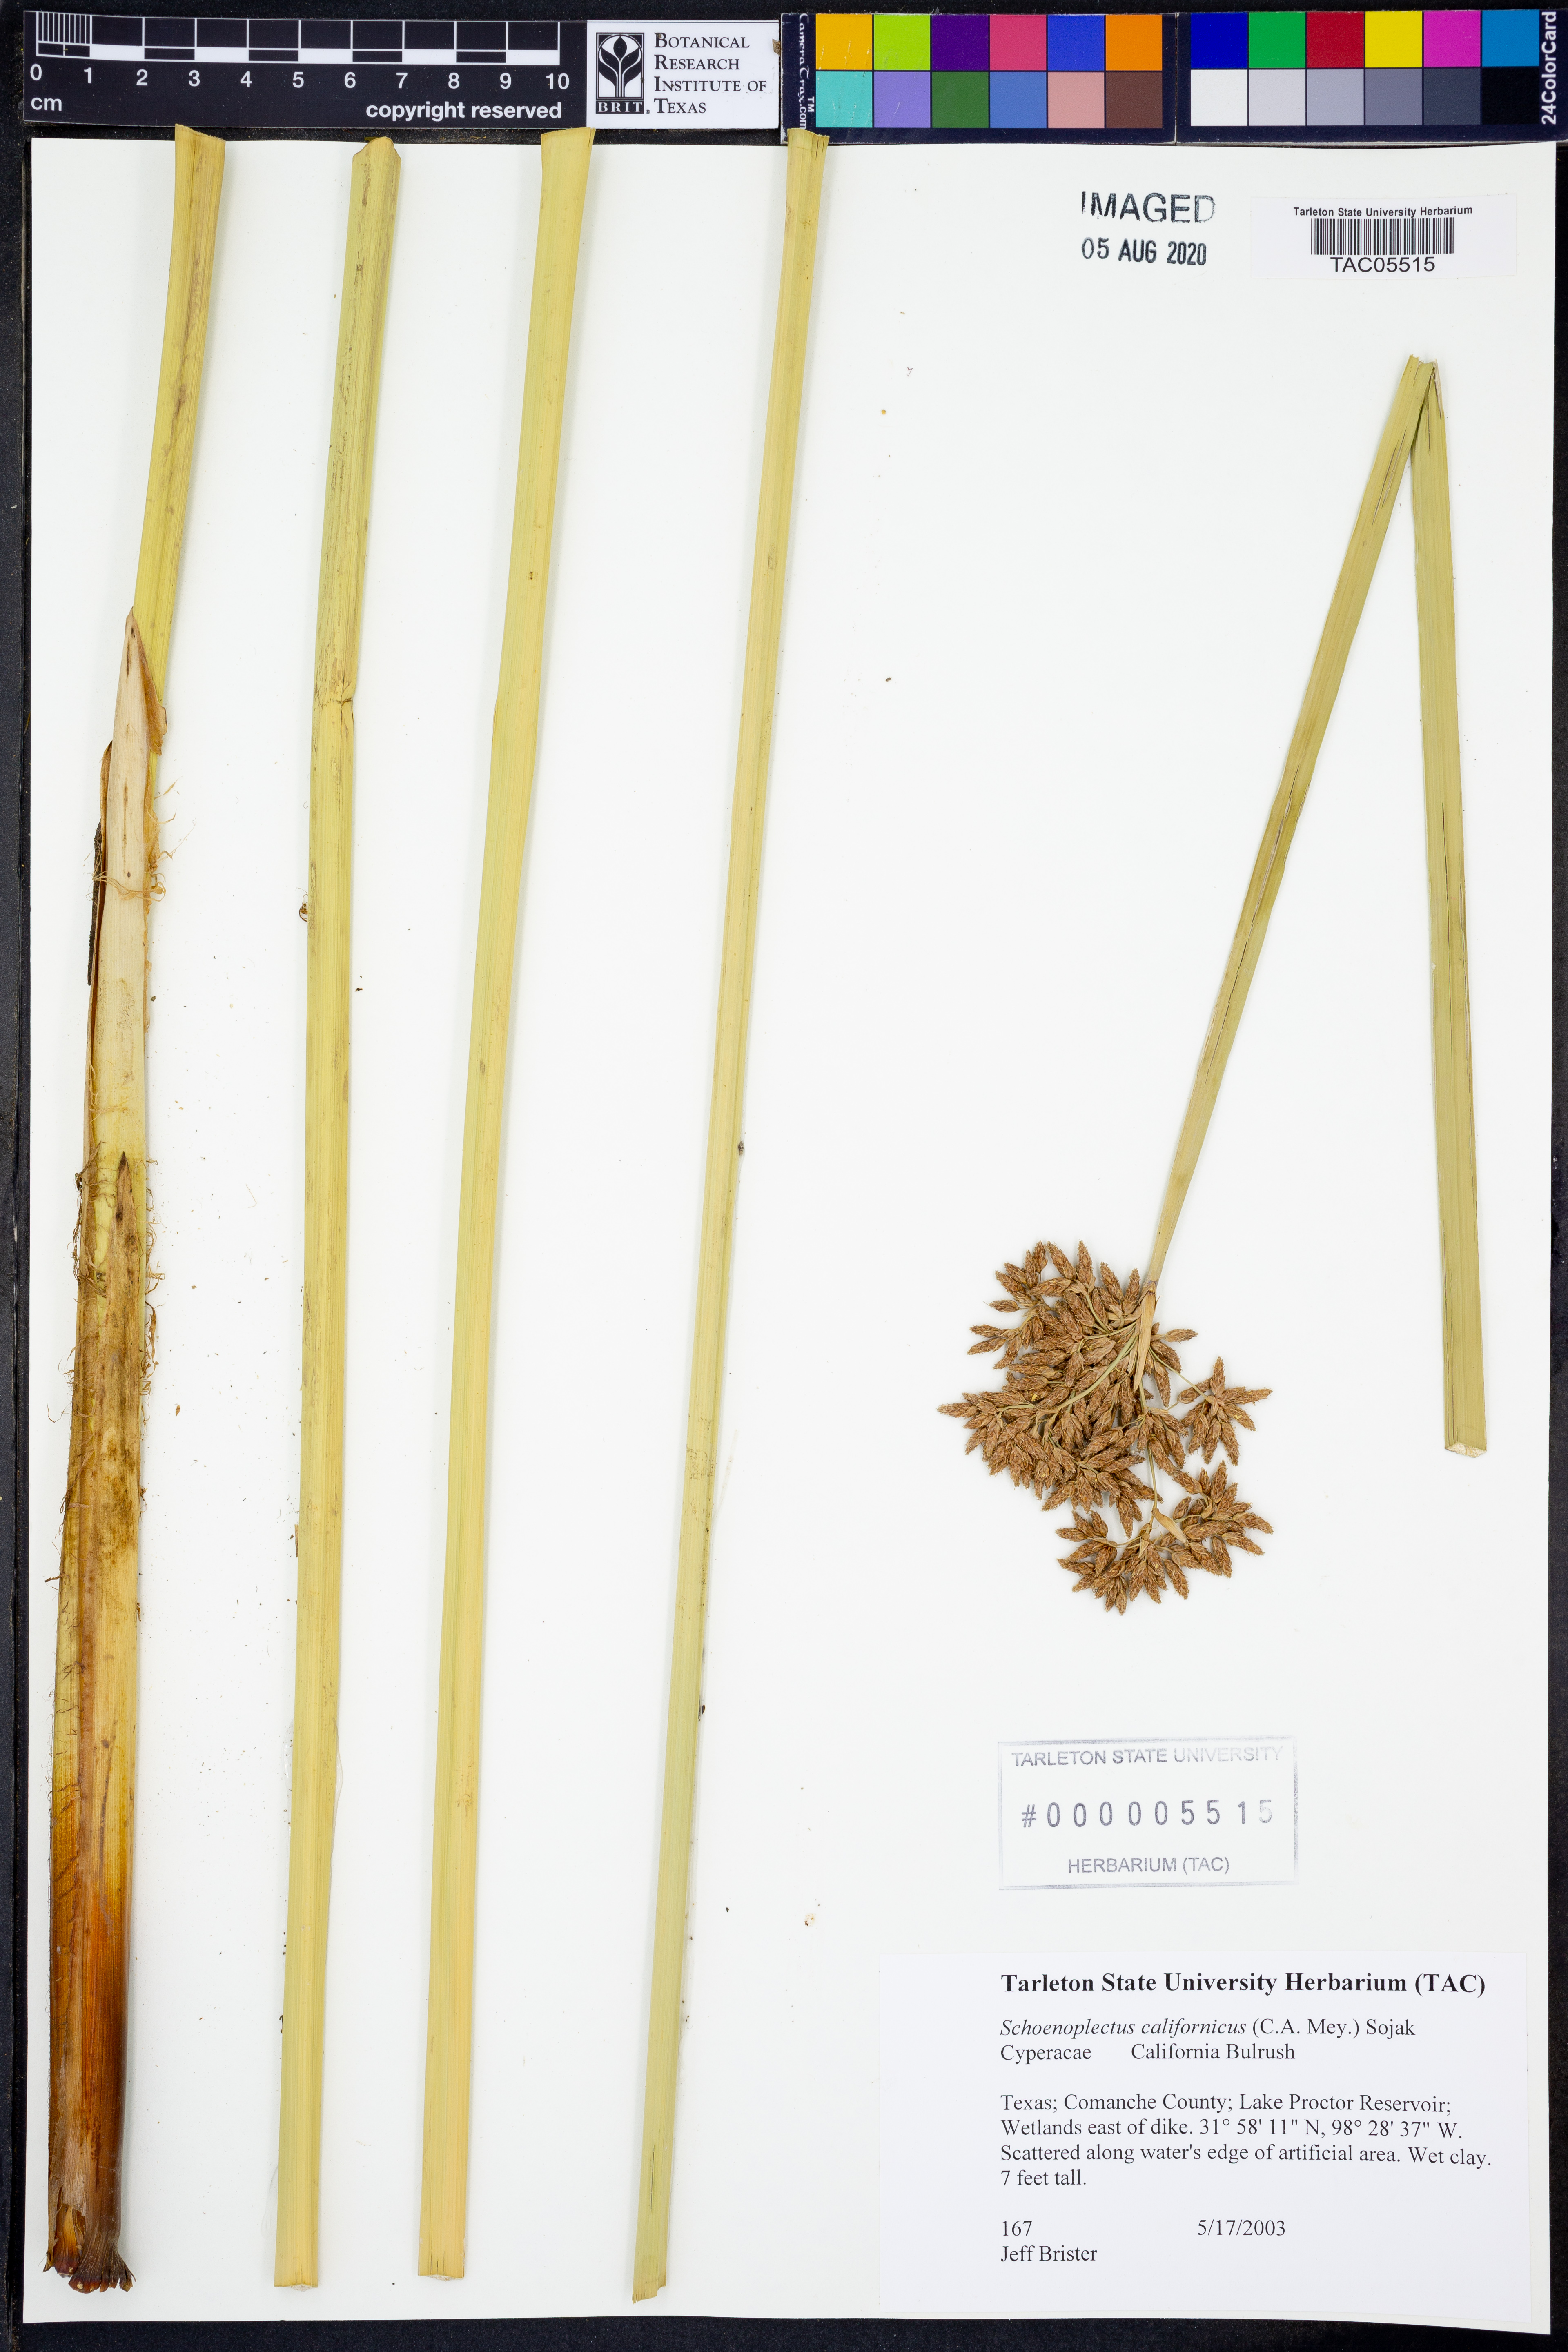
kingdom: Plantae
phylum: Tracheophyta
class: Liliopsida
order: Poales
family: Cyperaceae
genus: Schoenoplectus
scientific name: Schoenoplectus californicus
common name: California bulrush
